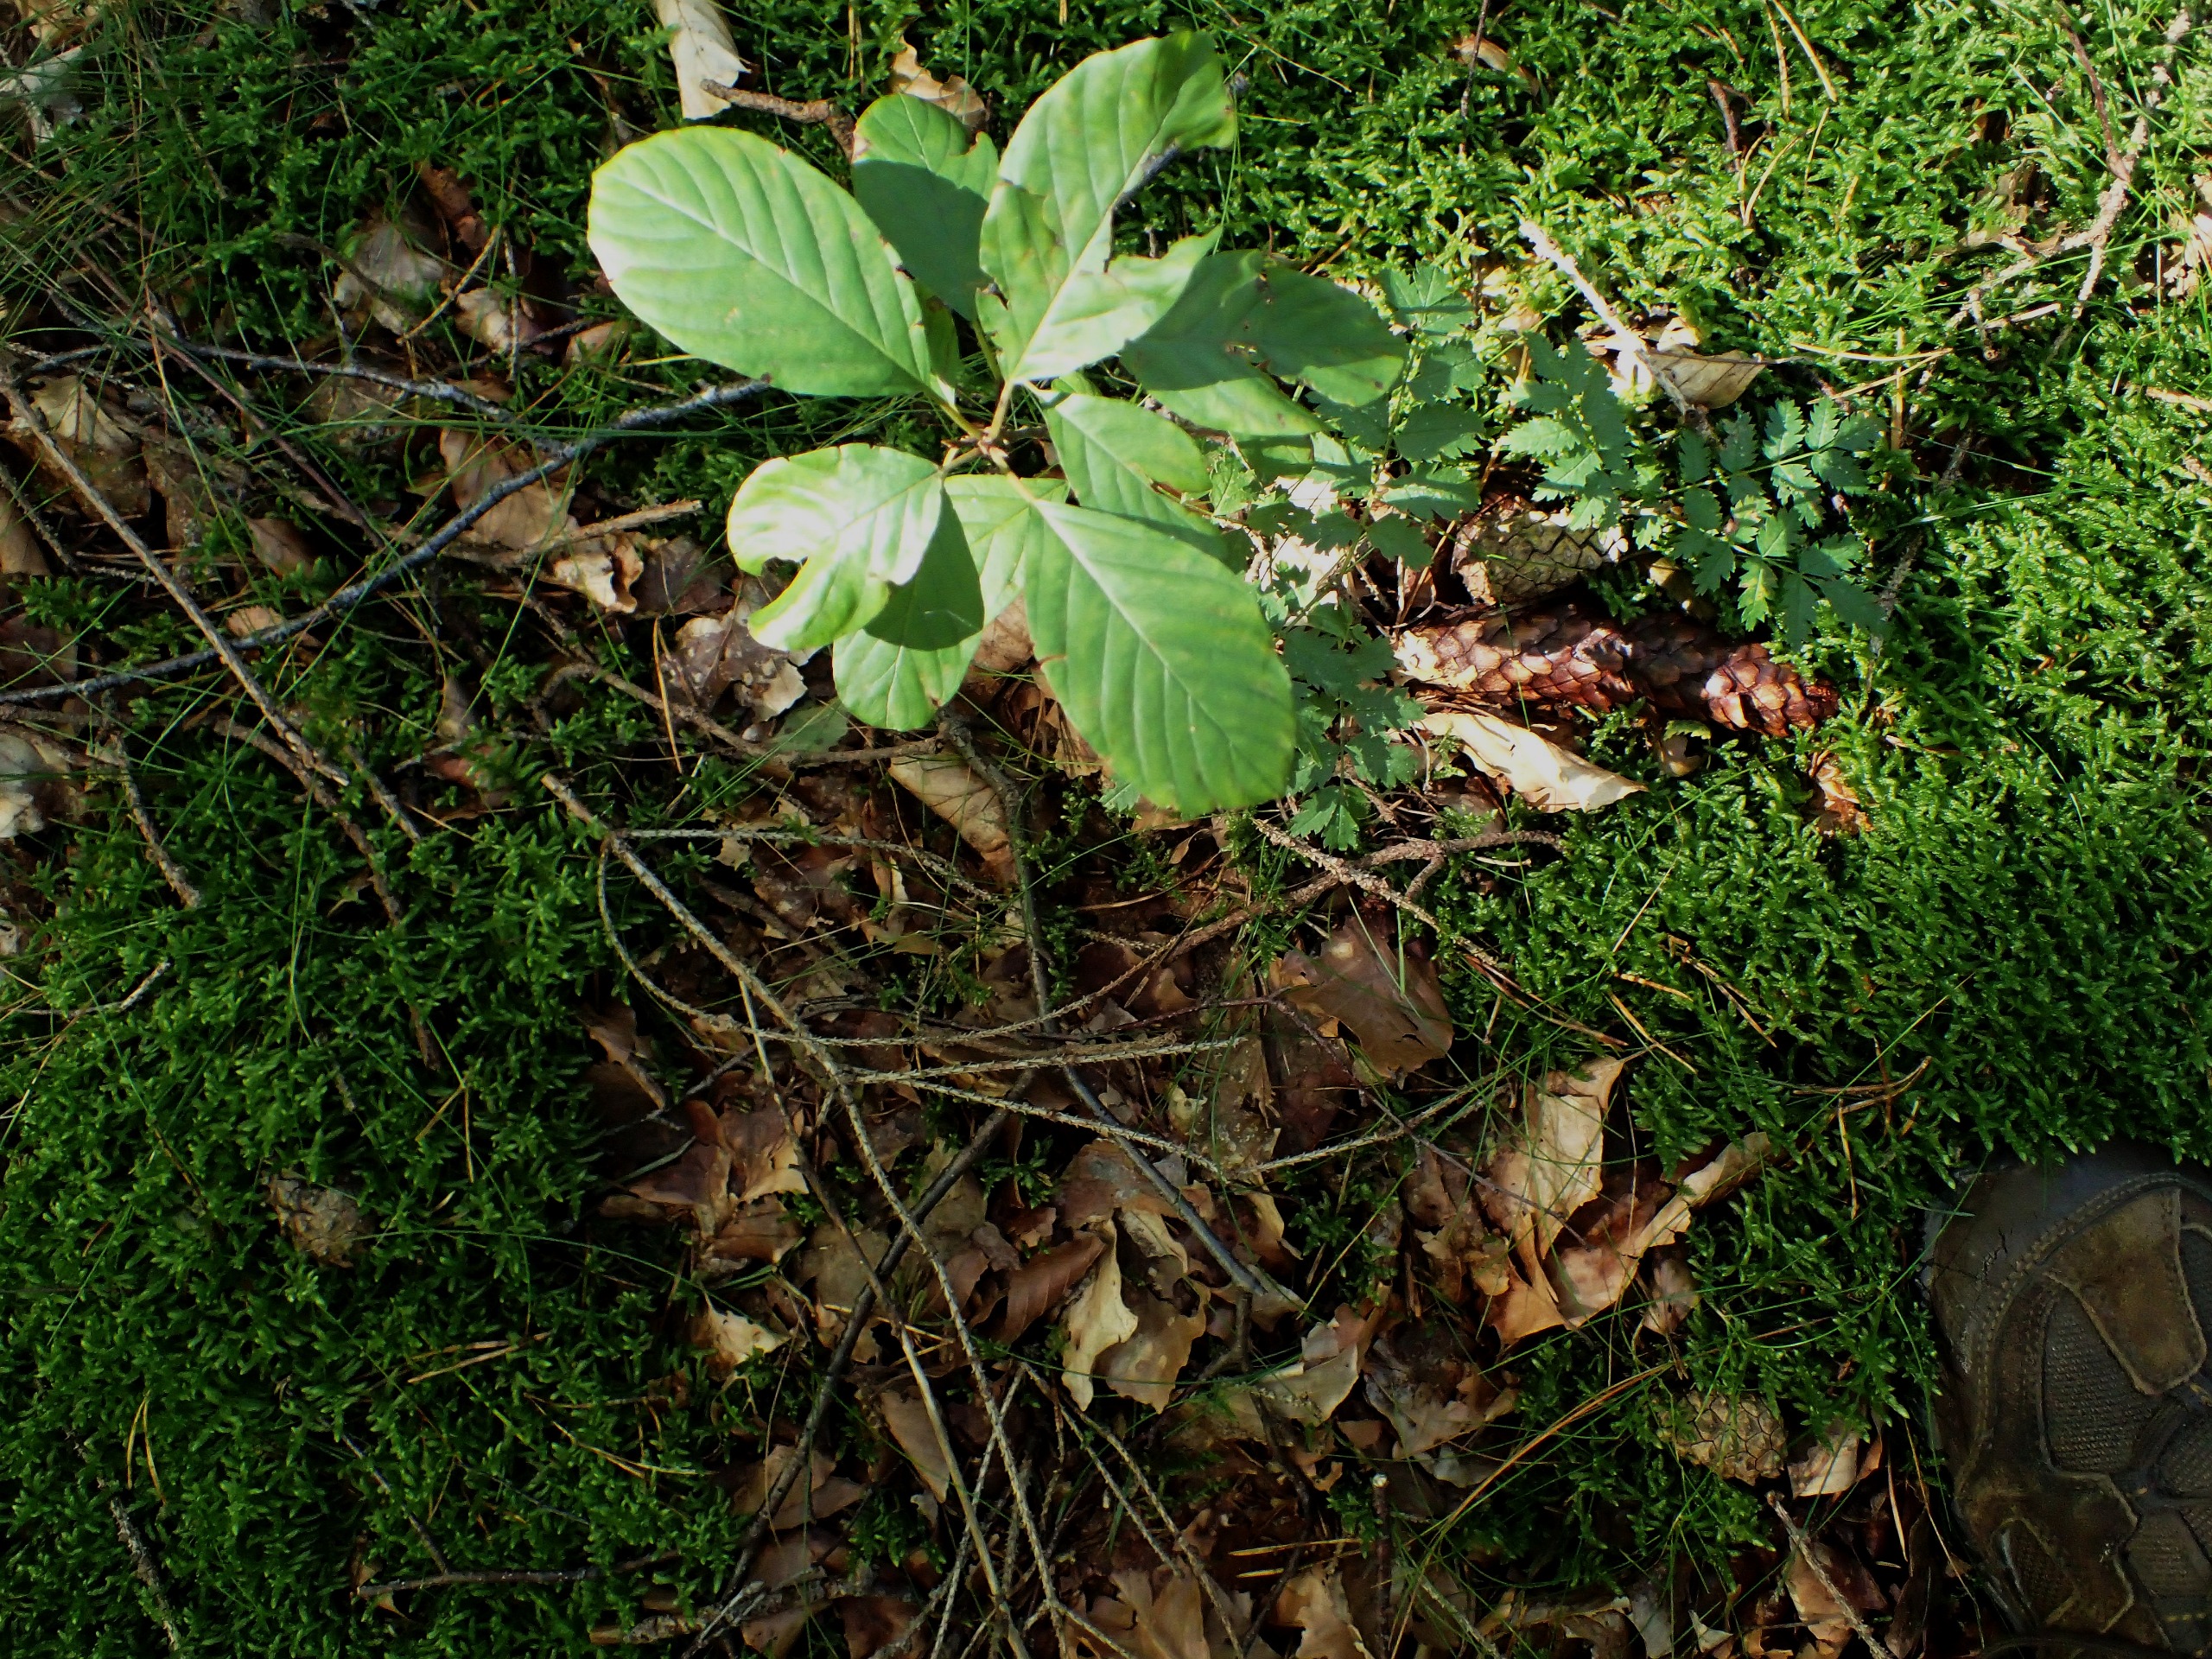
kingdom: Plantae
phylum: Tracheophyta
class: Magnoliopsida
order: Rosales
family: Rhamnaceae
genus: Frangula
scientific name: Frangula alnus
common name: Tørst
